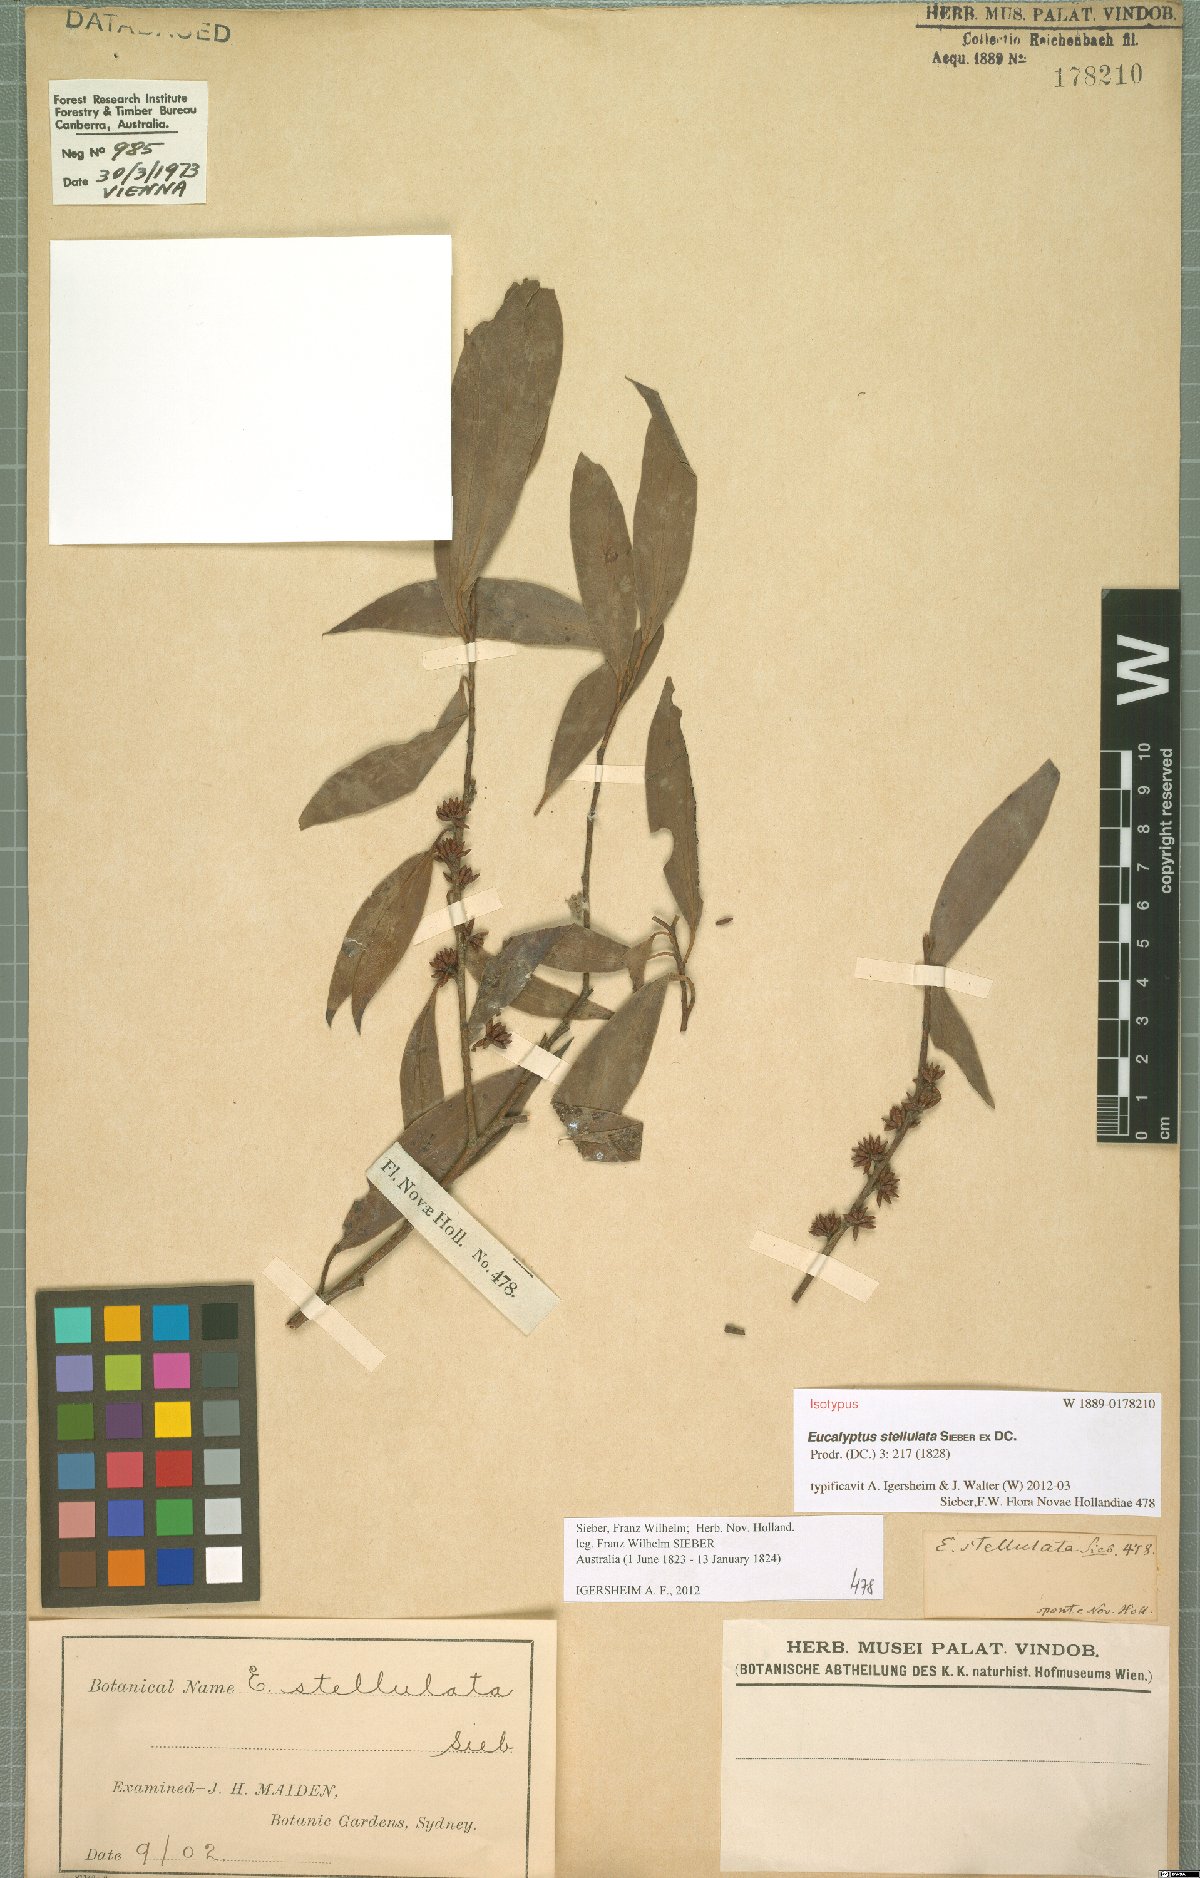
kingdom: Plantae
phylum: Tracheophyta
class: Magnoliopsida
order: Myrtales
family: Myrtaceae
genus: Eucalyptus
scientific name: Eucalyptus stellulata
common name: Black sallee
